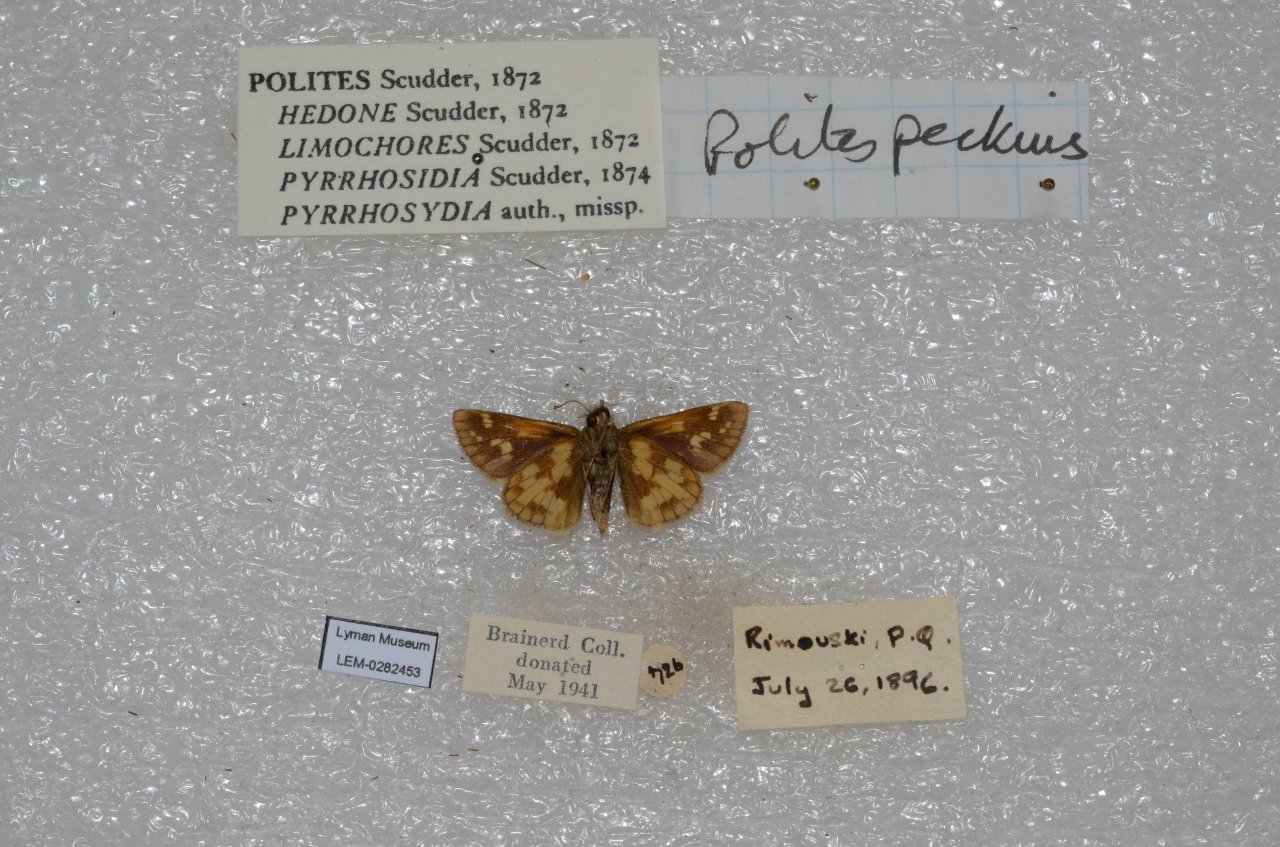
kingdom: Animalia
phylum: Arthropoda
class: Insecta
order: Lepidoptera
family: Hesperiidae
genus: Polites
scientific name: Polites coras
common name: Peck's Skipper
